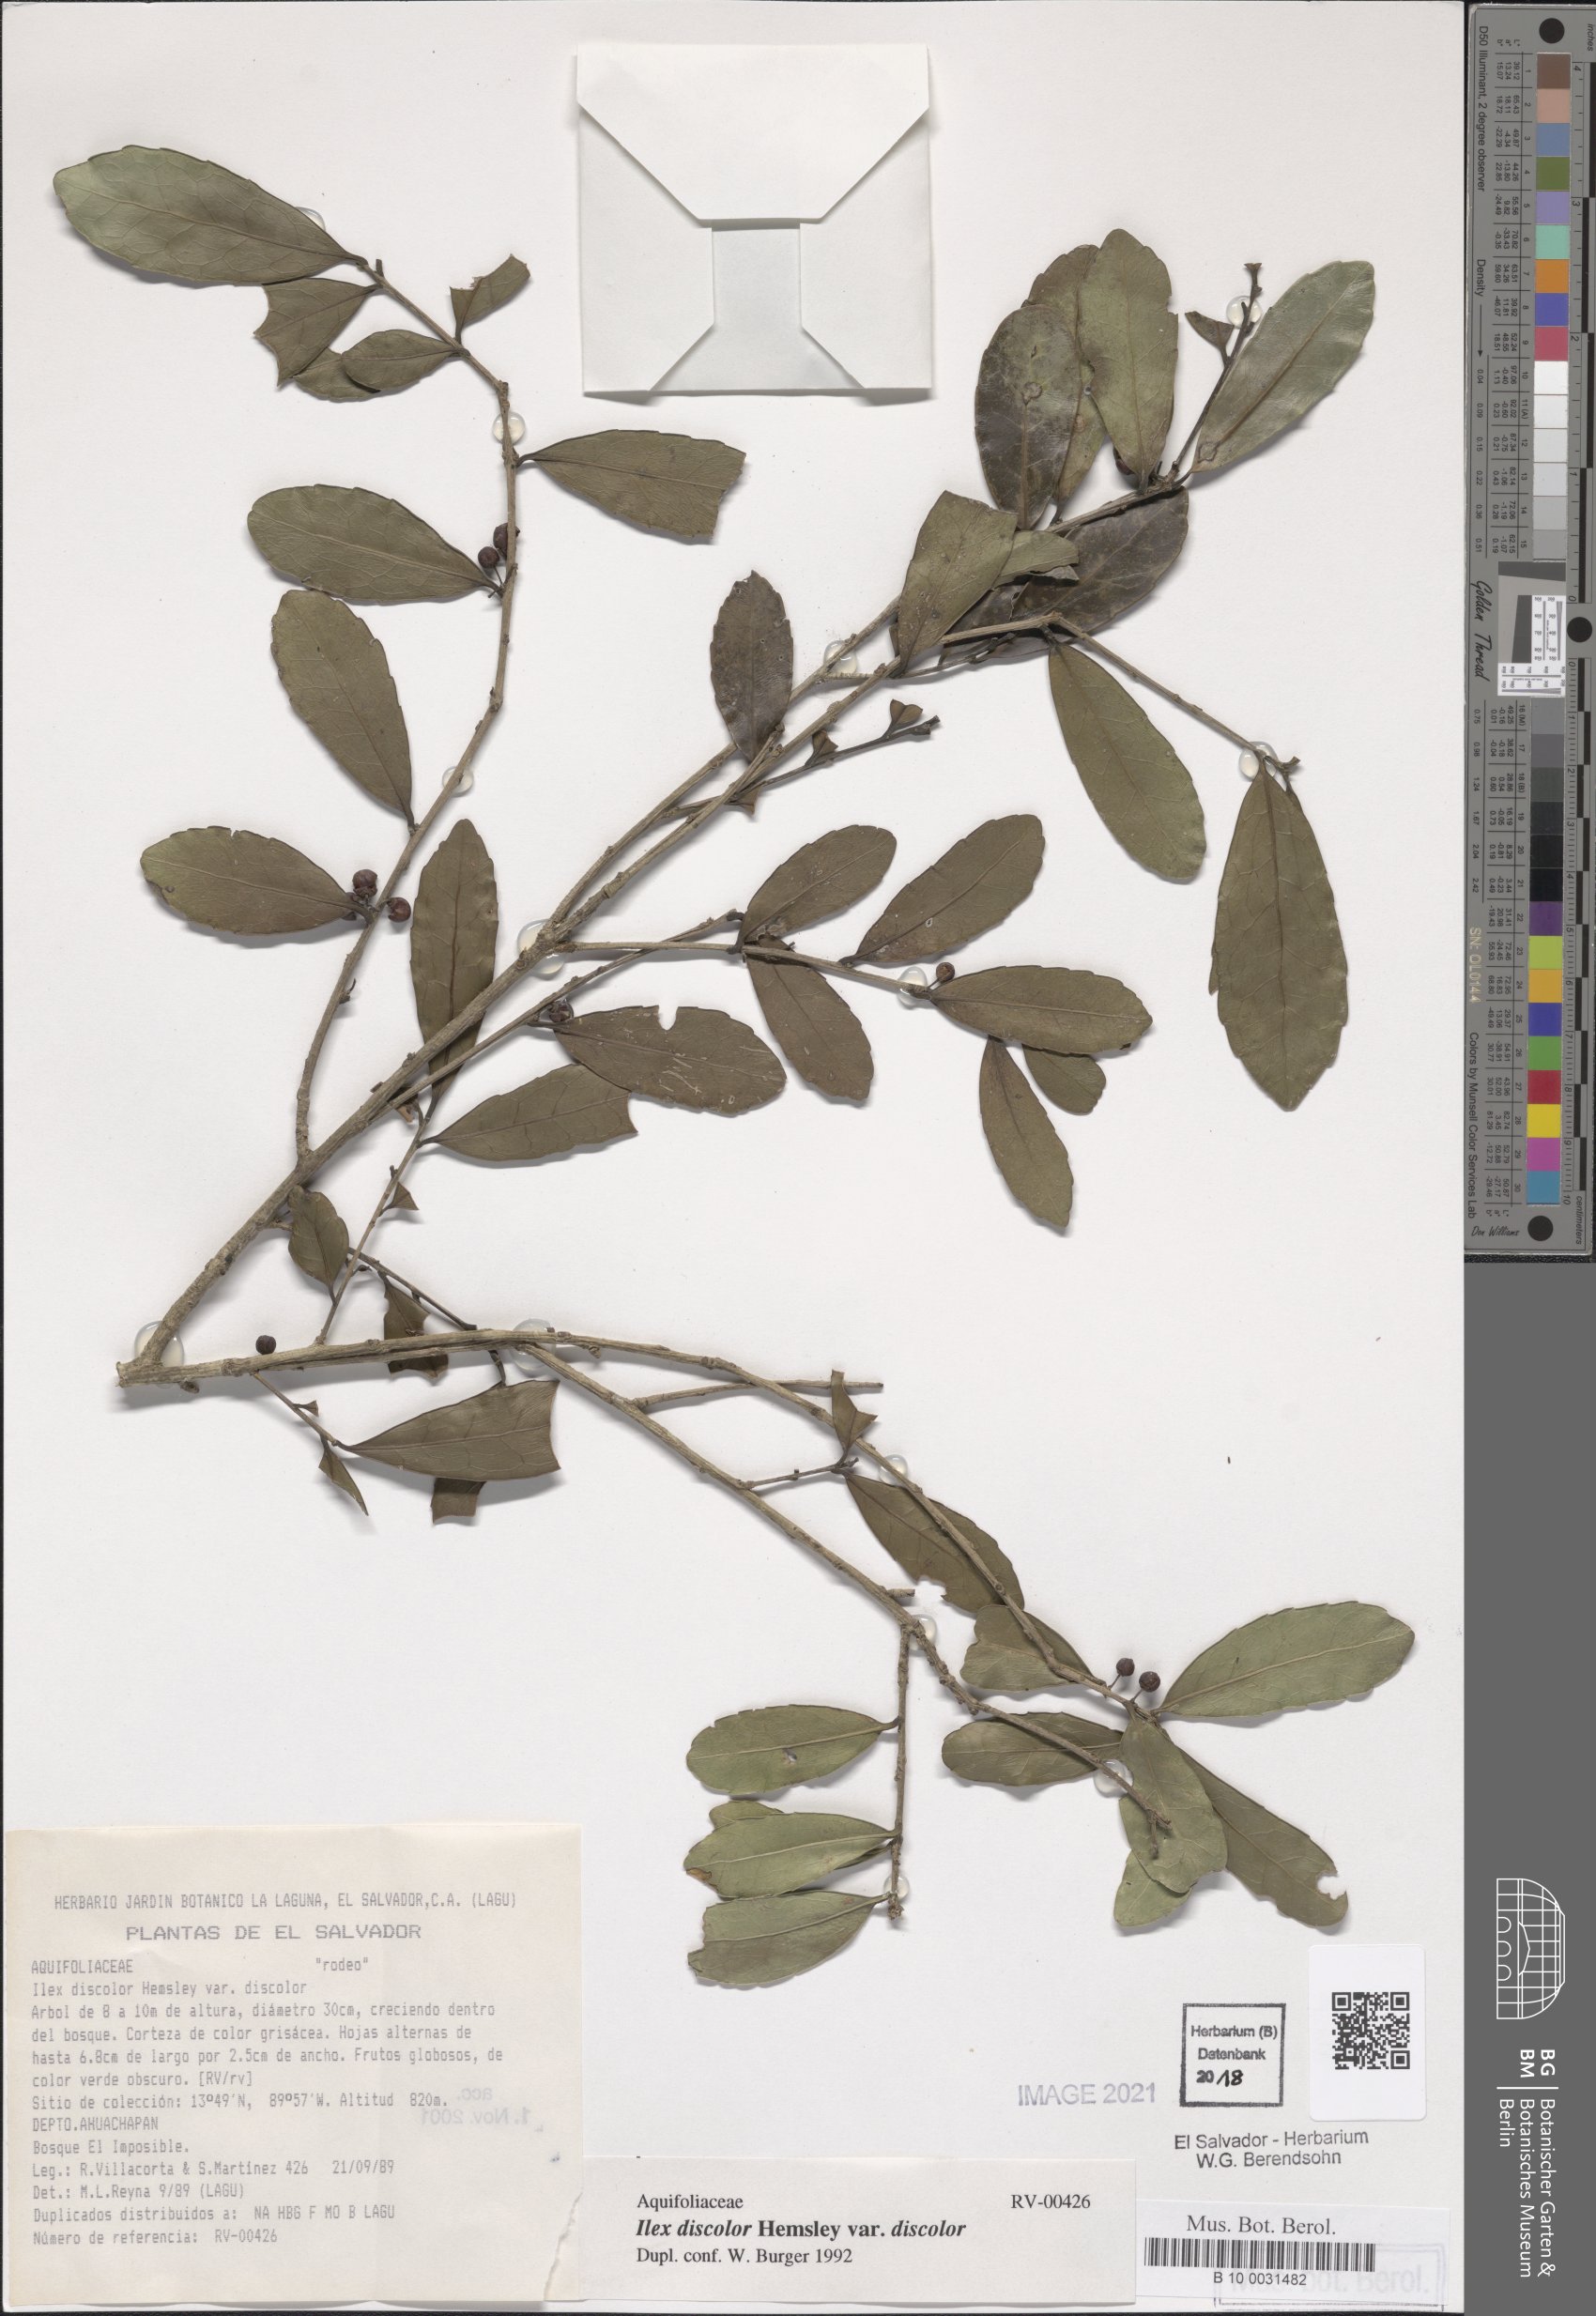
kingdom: Plantae
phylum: Tracheophyta
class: Magnoliopsida
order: Aquifoliales
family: Aquifoliaceae
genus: Ilex
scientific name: Ilex discolor
